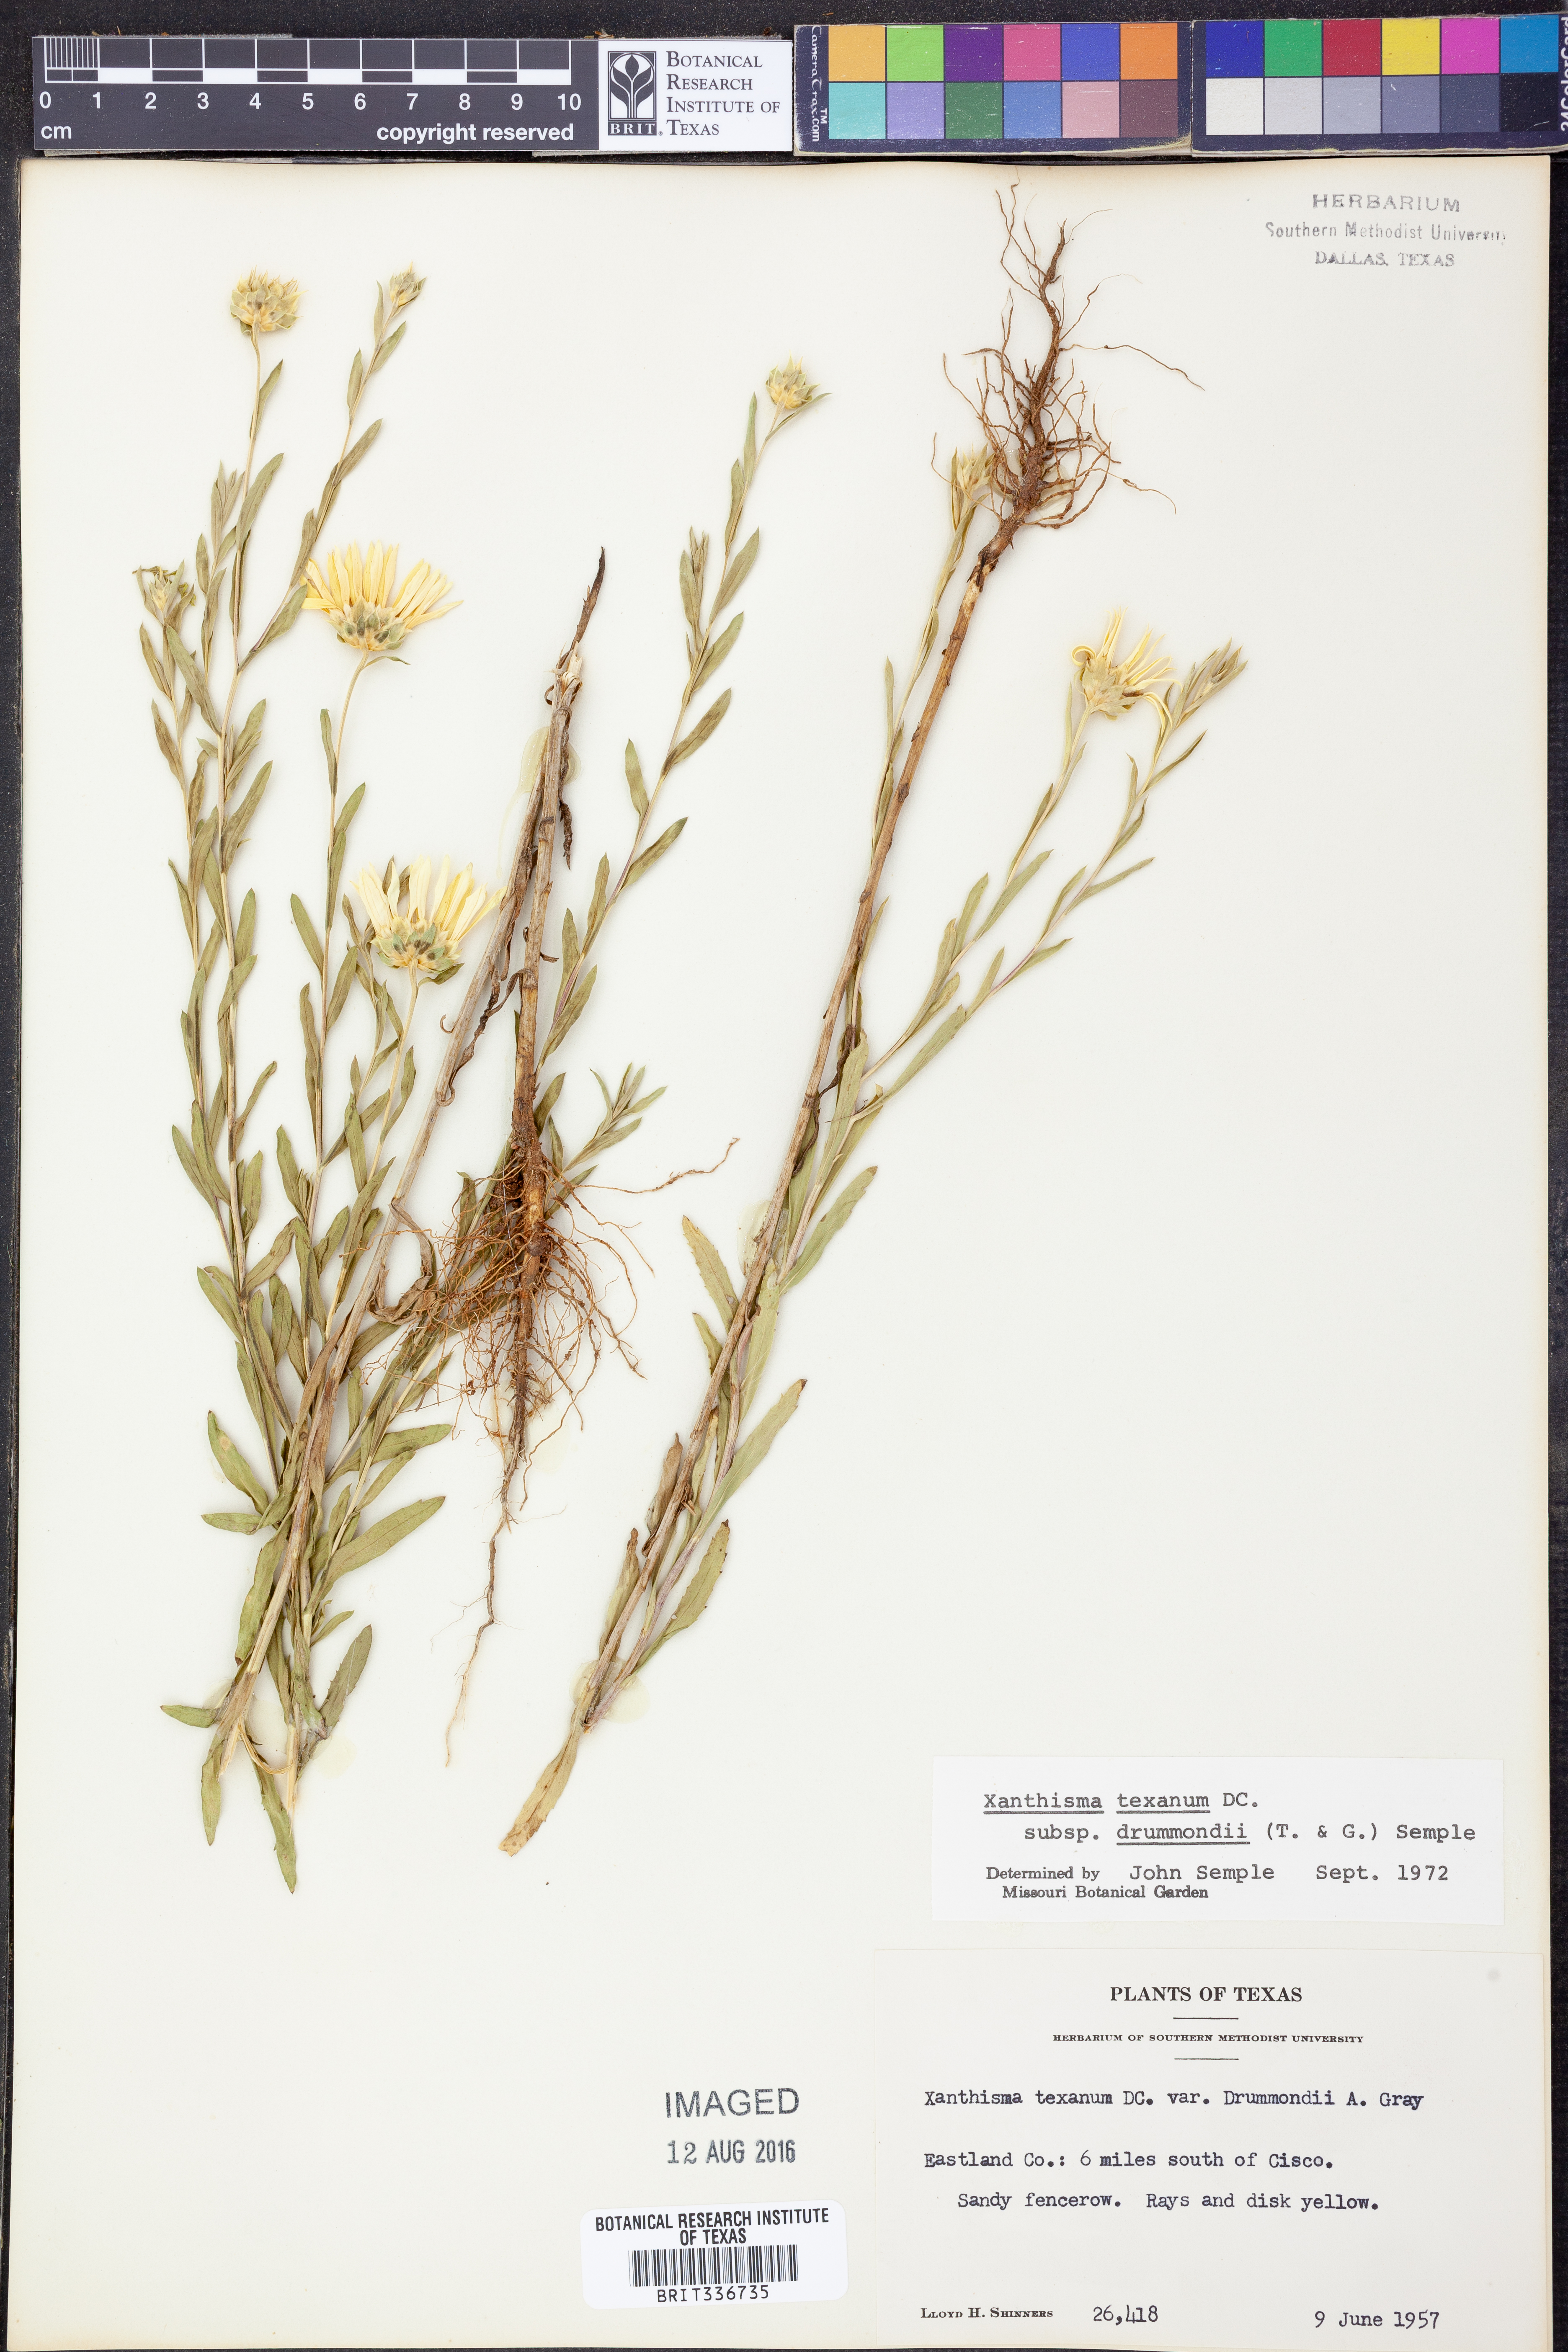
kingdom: Plantae
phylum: Tracheophyta
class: Magnoliopsida
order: Asterales
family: Asteraceae
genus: Xanthisma
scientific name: Xanthisma texanum
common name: Texas sleepy daisy
